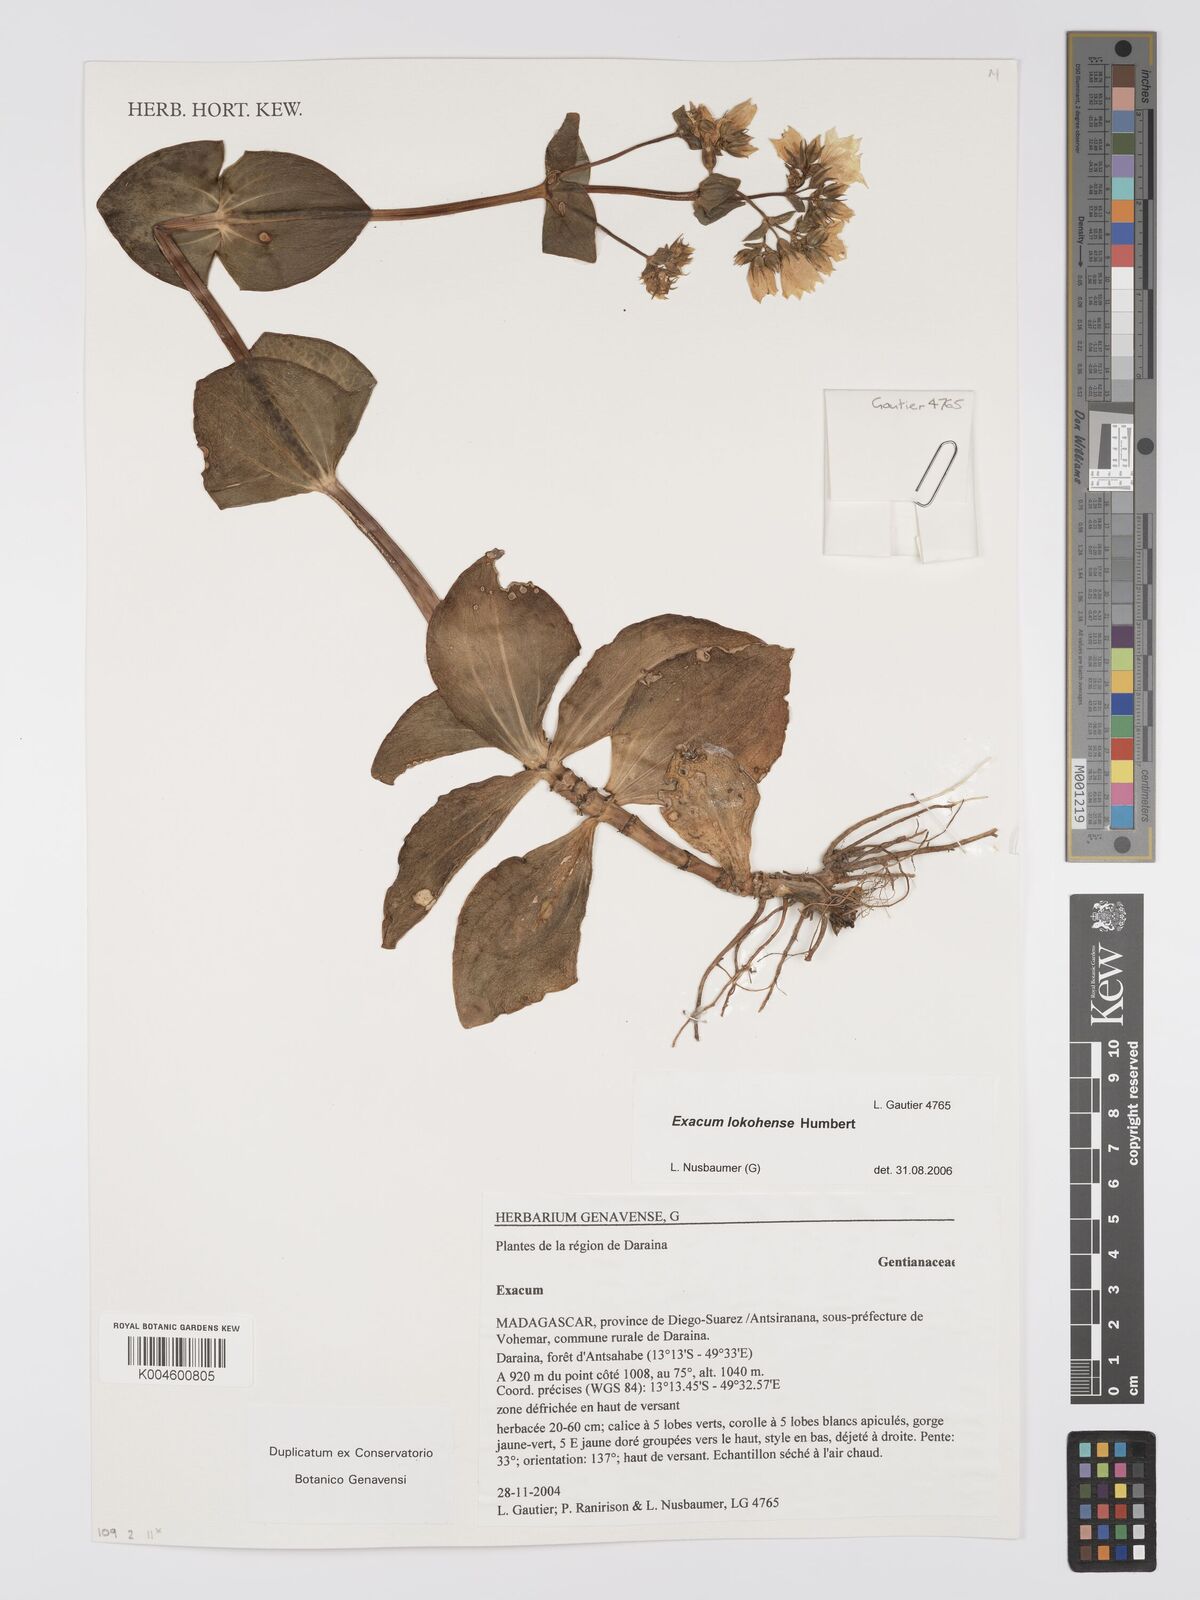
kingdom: Plantae
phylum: Tracheophyta
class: Magnoliopsida
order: Gentianales
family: Gentianaceae
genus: Exacum
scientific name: Exacum lokohense
